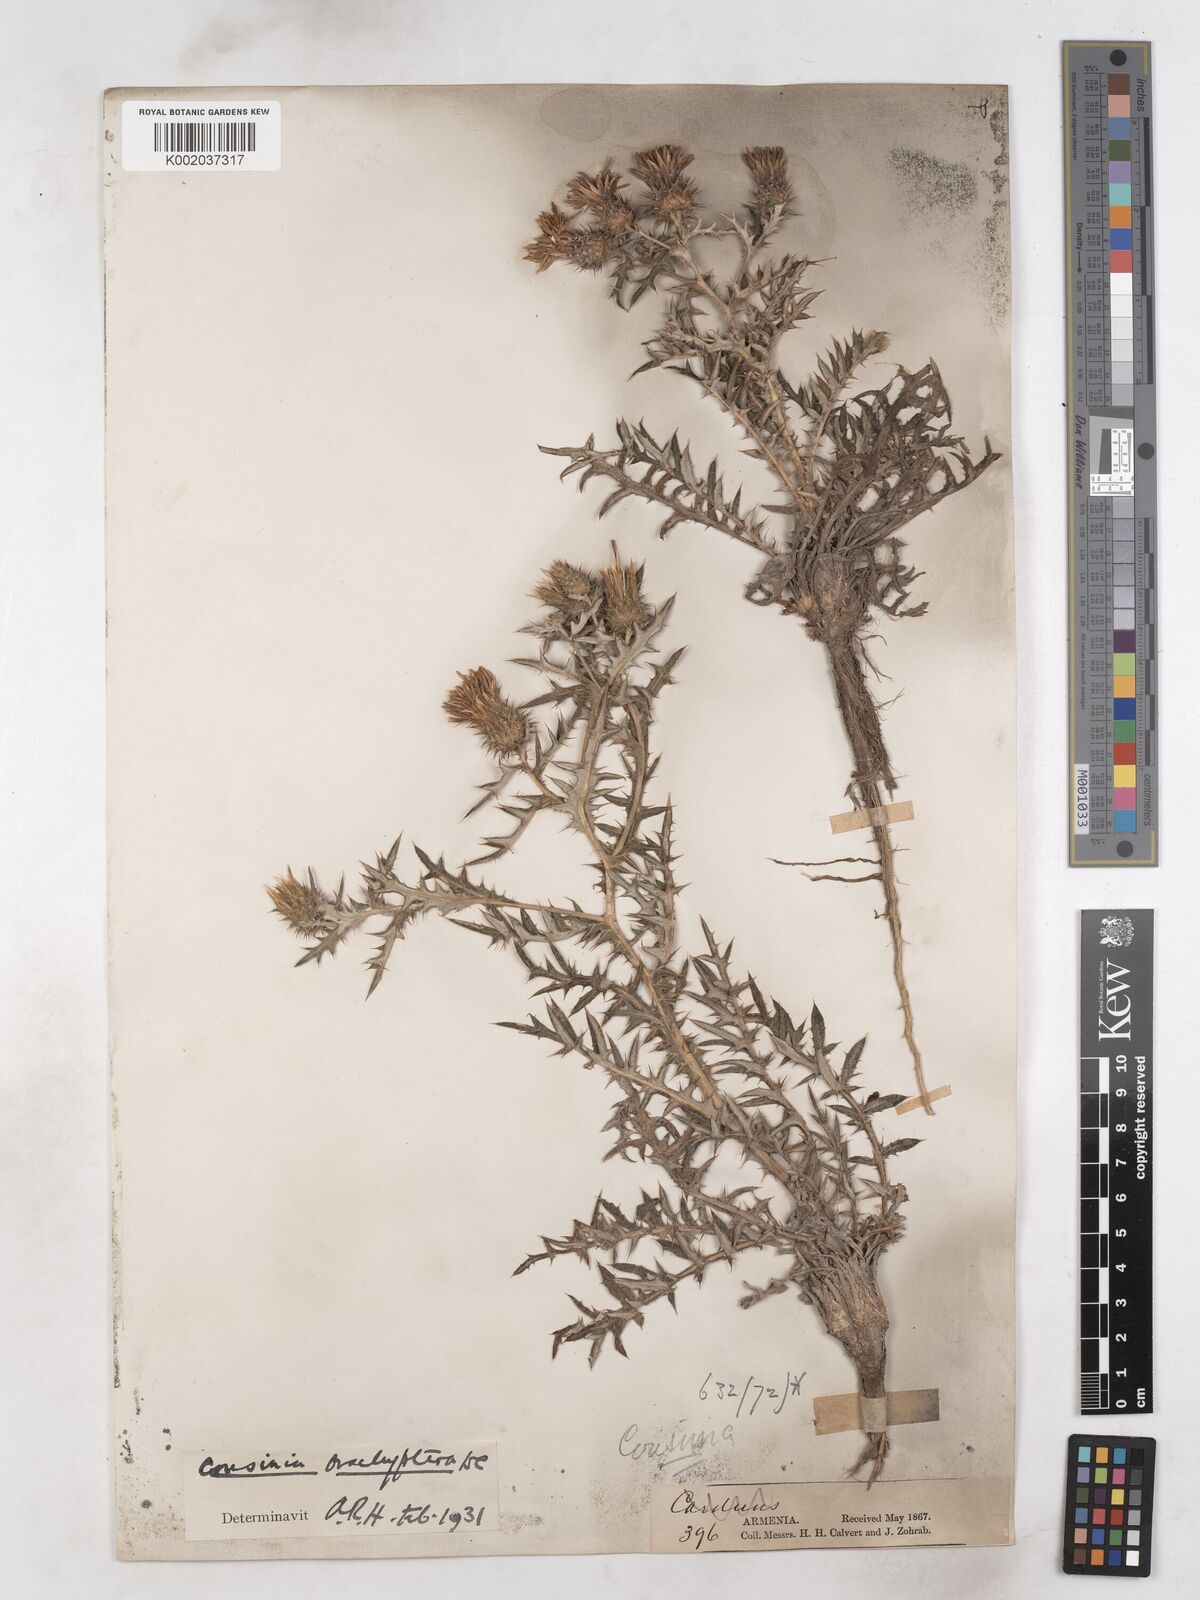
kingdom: Plantae
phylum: Tracheophyta
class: Magnoliopsida
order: Asterales
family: Asteraceae
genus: Cousinia
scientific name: Cousinia brachyptera
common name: Short-winged cousinia
